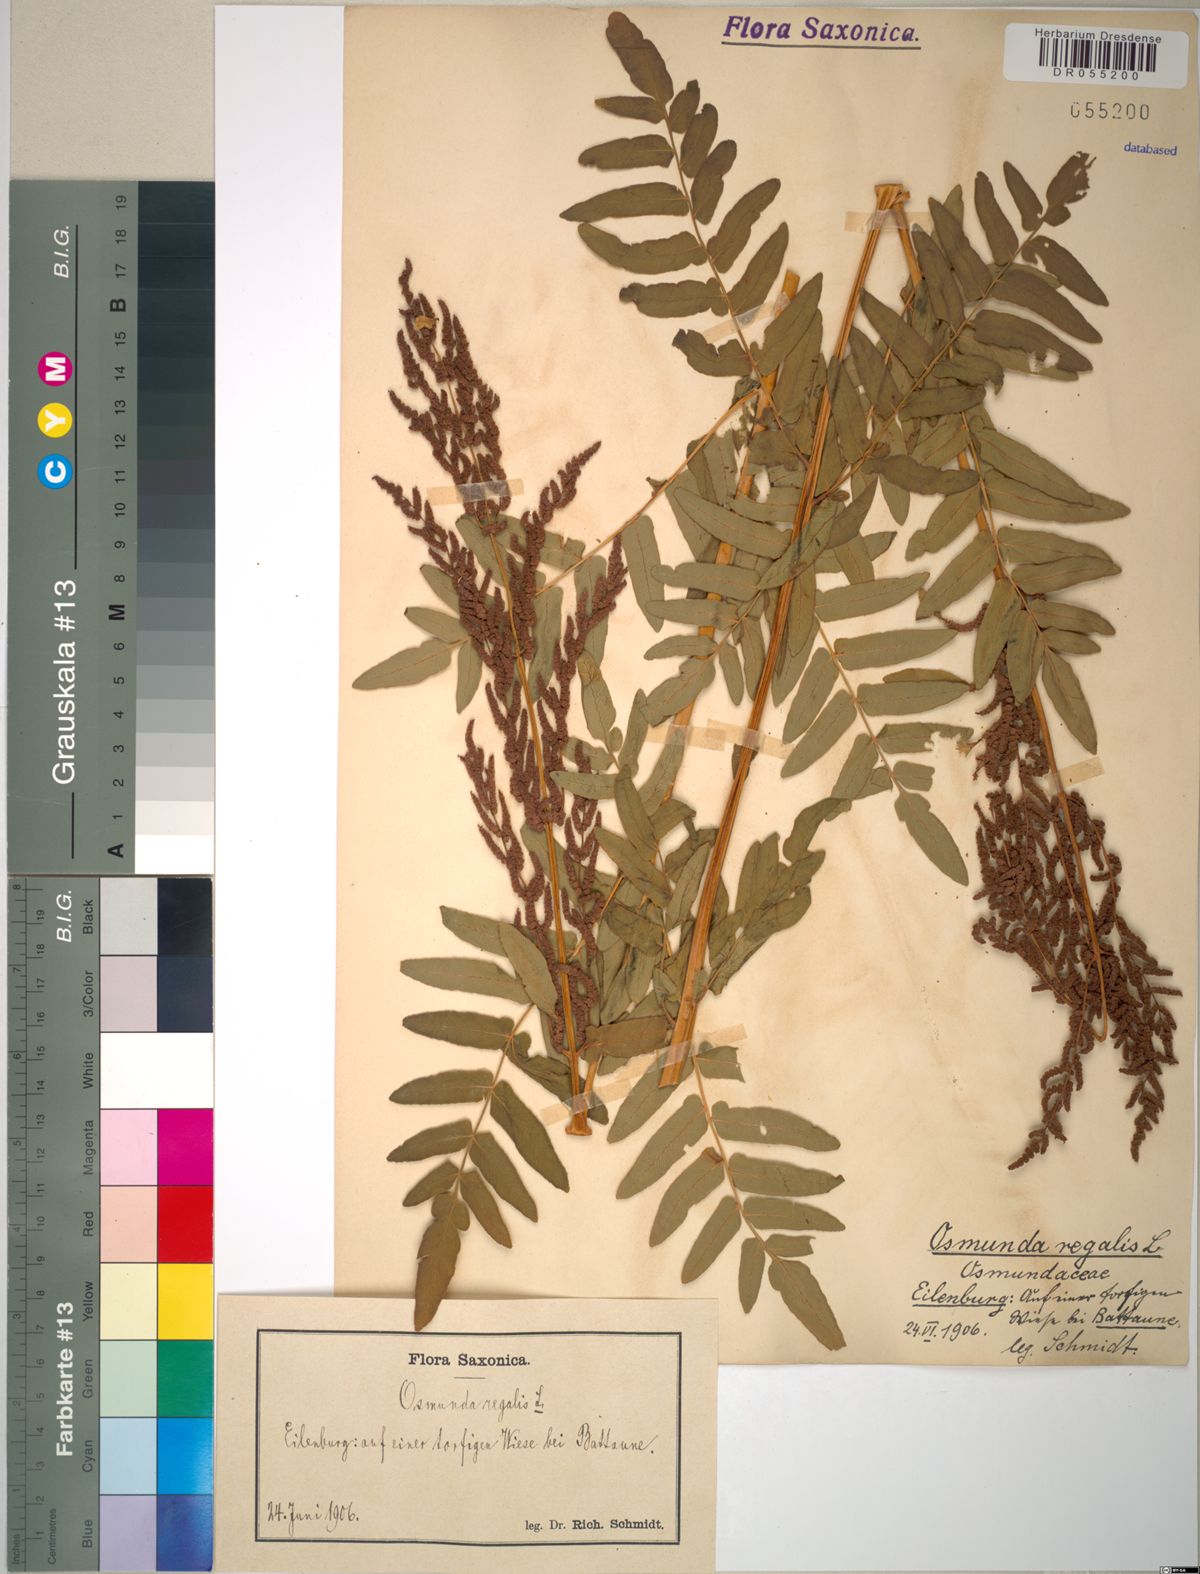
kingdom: Plantae
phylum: Tracheophyta
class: Polypodiopsida
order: Osmundales
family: Osmundaceae
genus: Osmunda
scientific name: Osmunda regalis
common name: Royal fern
